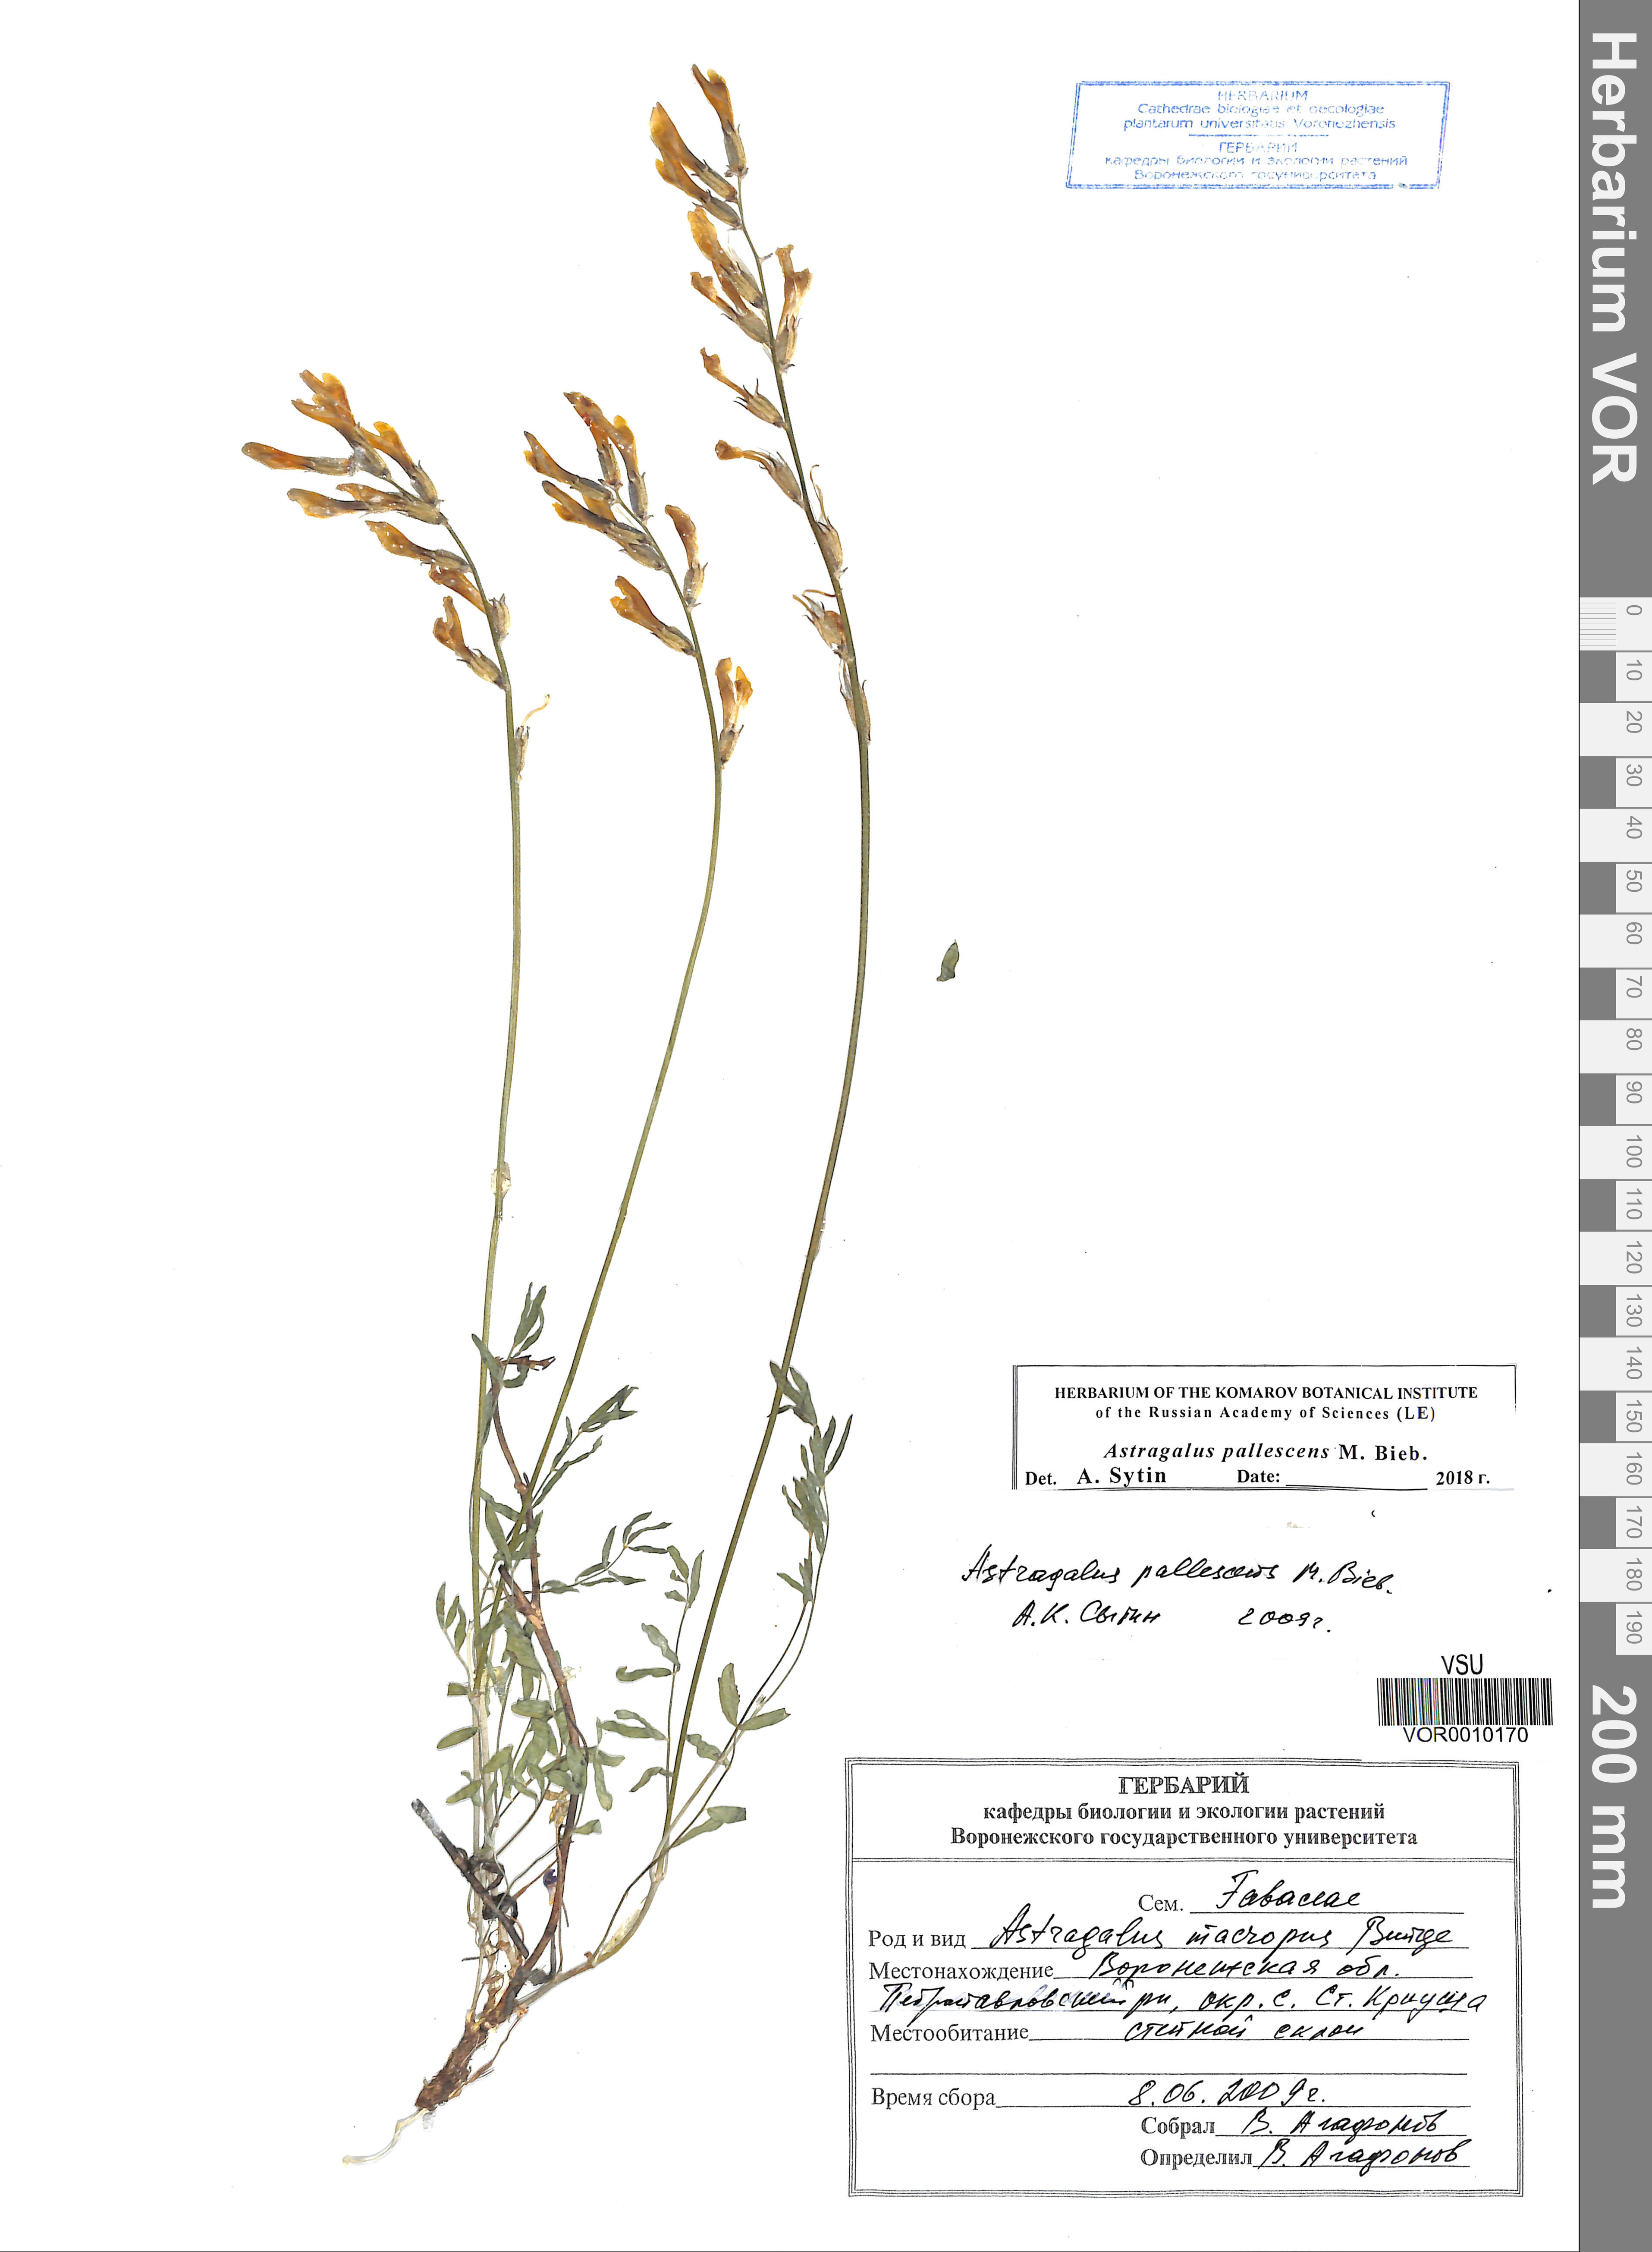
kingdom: Plantae
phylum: Tracheophyta
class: Magnoliopsida
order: Fabales
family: Fabaceae
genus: Astragalus
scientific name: Astragalus pallescens
